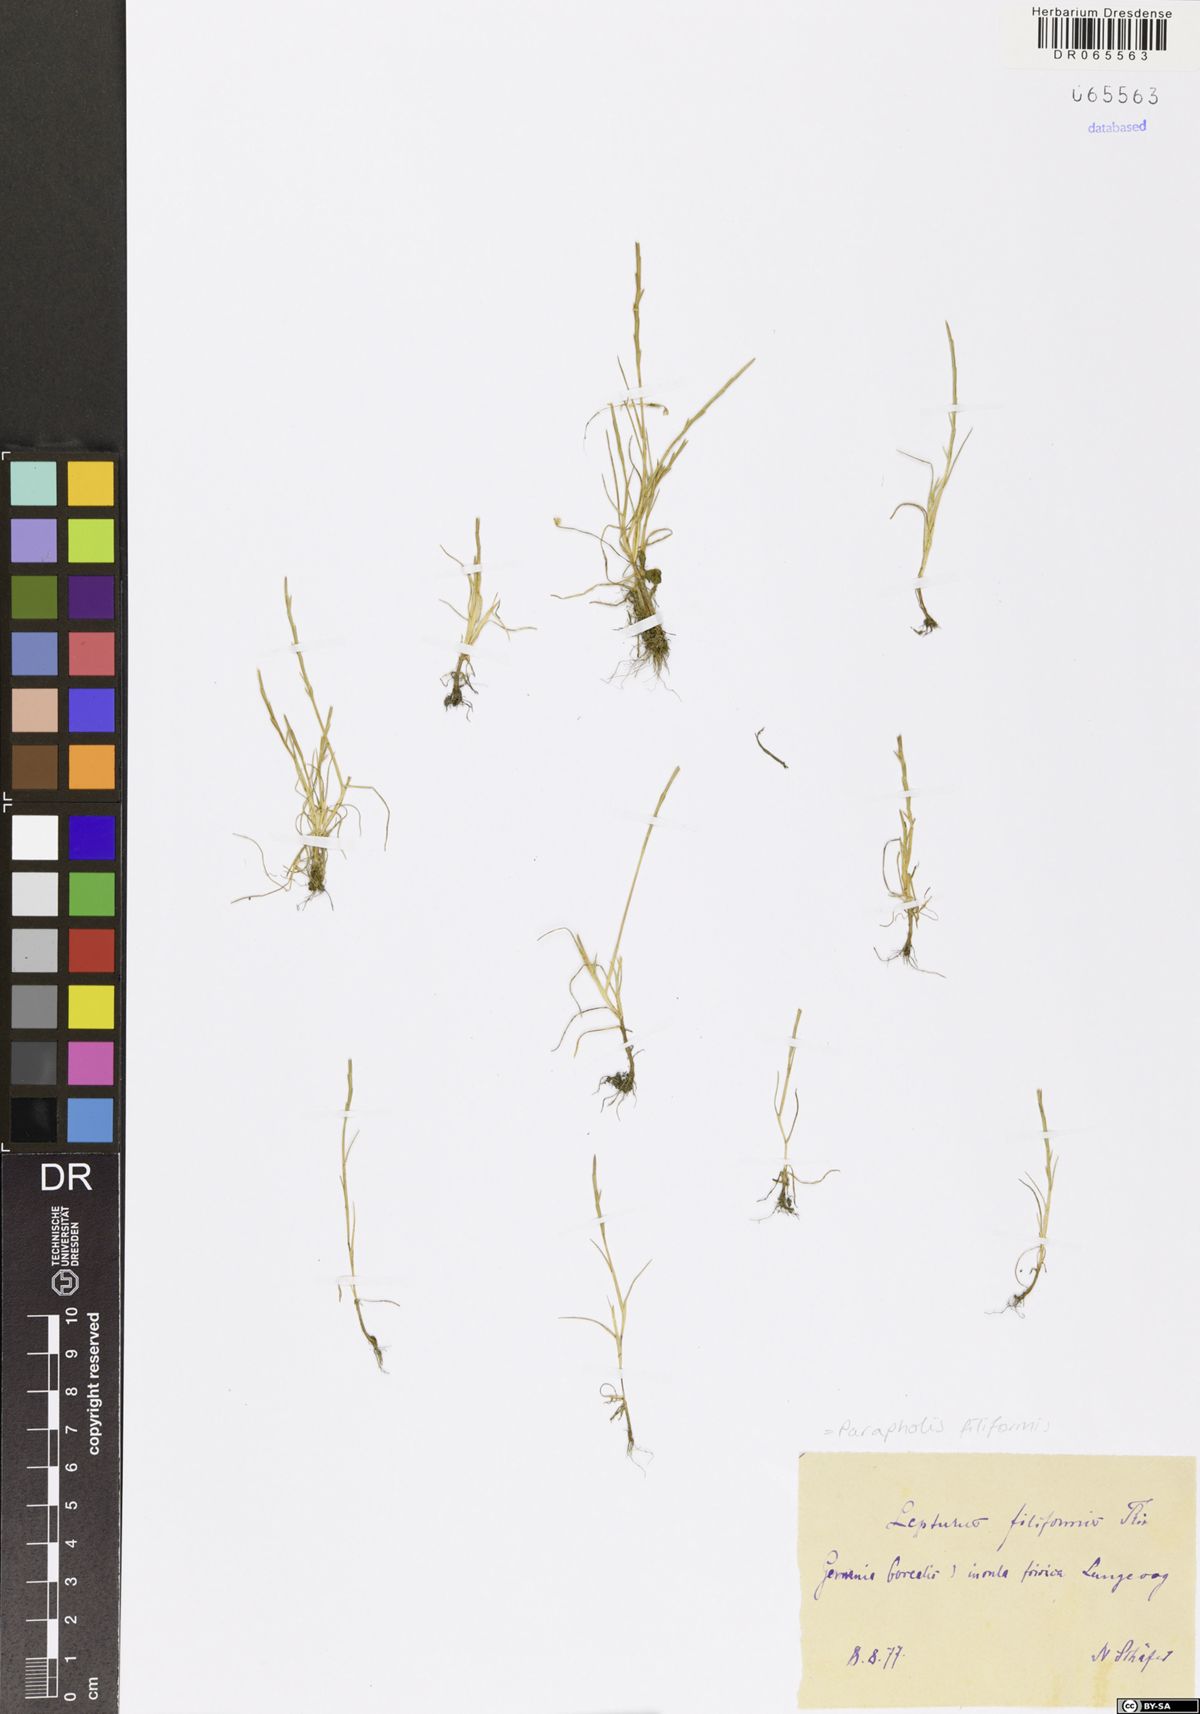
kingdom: Plantae
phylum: Tracheophyta
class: Liliopsida
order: Poales
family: Poaceae
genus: Parapholis
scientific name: Parapholis filiformis
